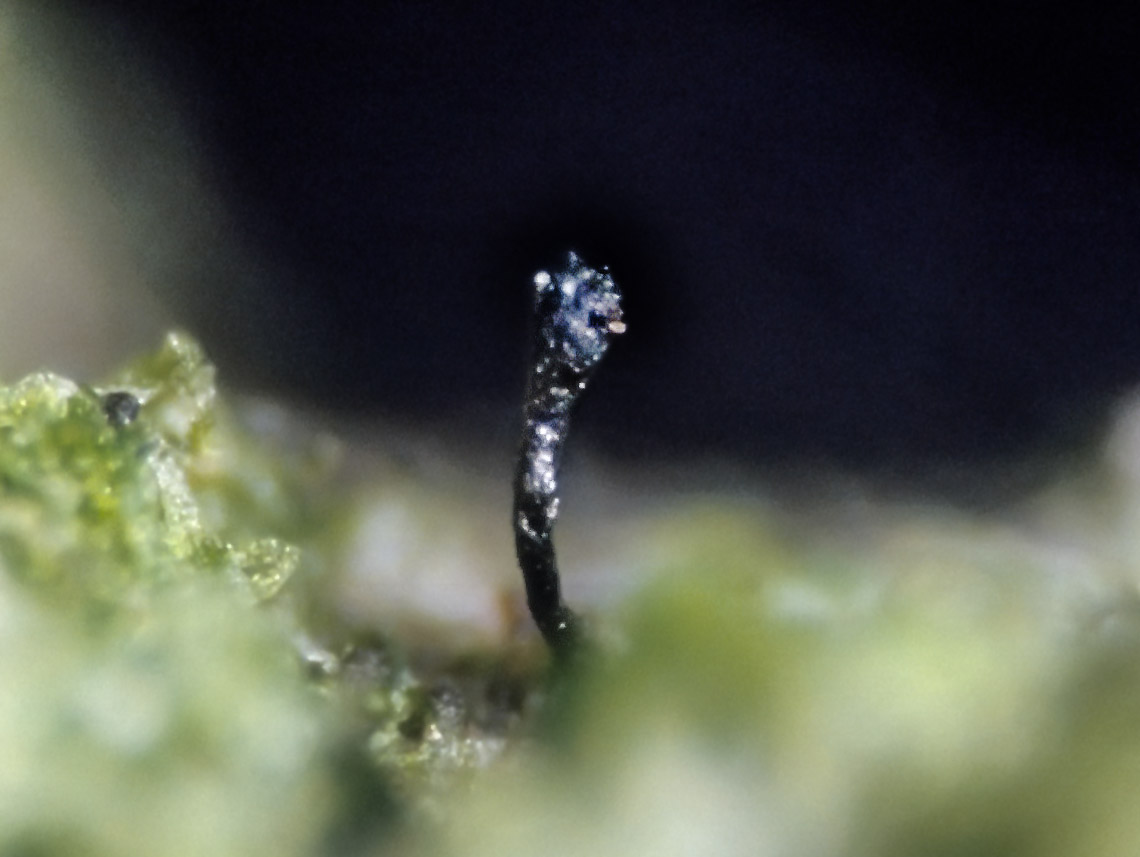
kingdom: Fungi
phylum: Ascomycota
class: Eurotiomycetes
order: Mycocaliciales
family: Mycocaliciaceae
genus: Stenocybe
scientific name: Stenocybe pullatula
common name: elle-nålesvamp
